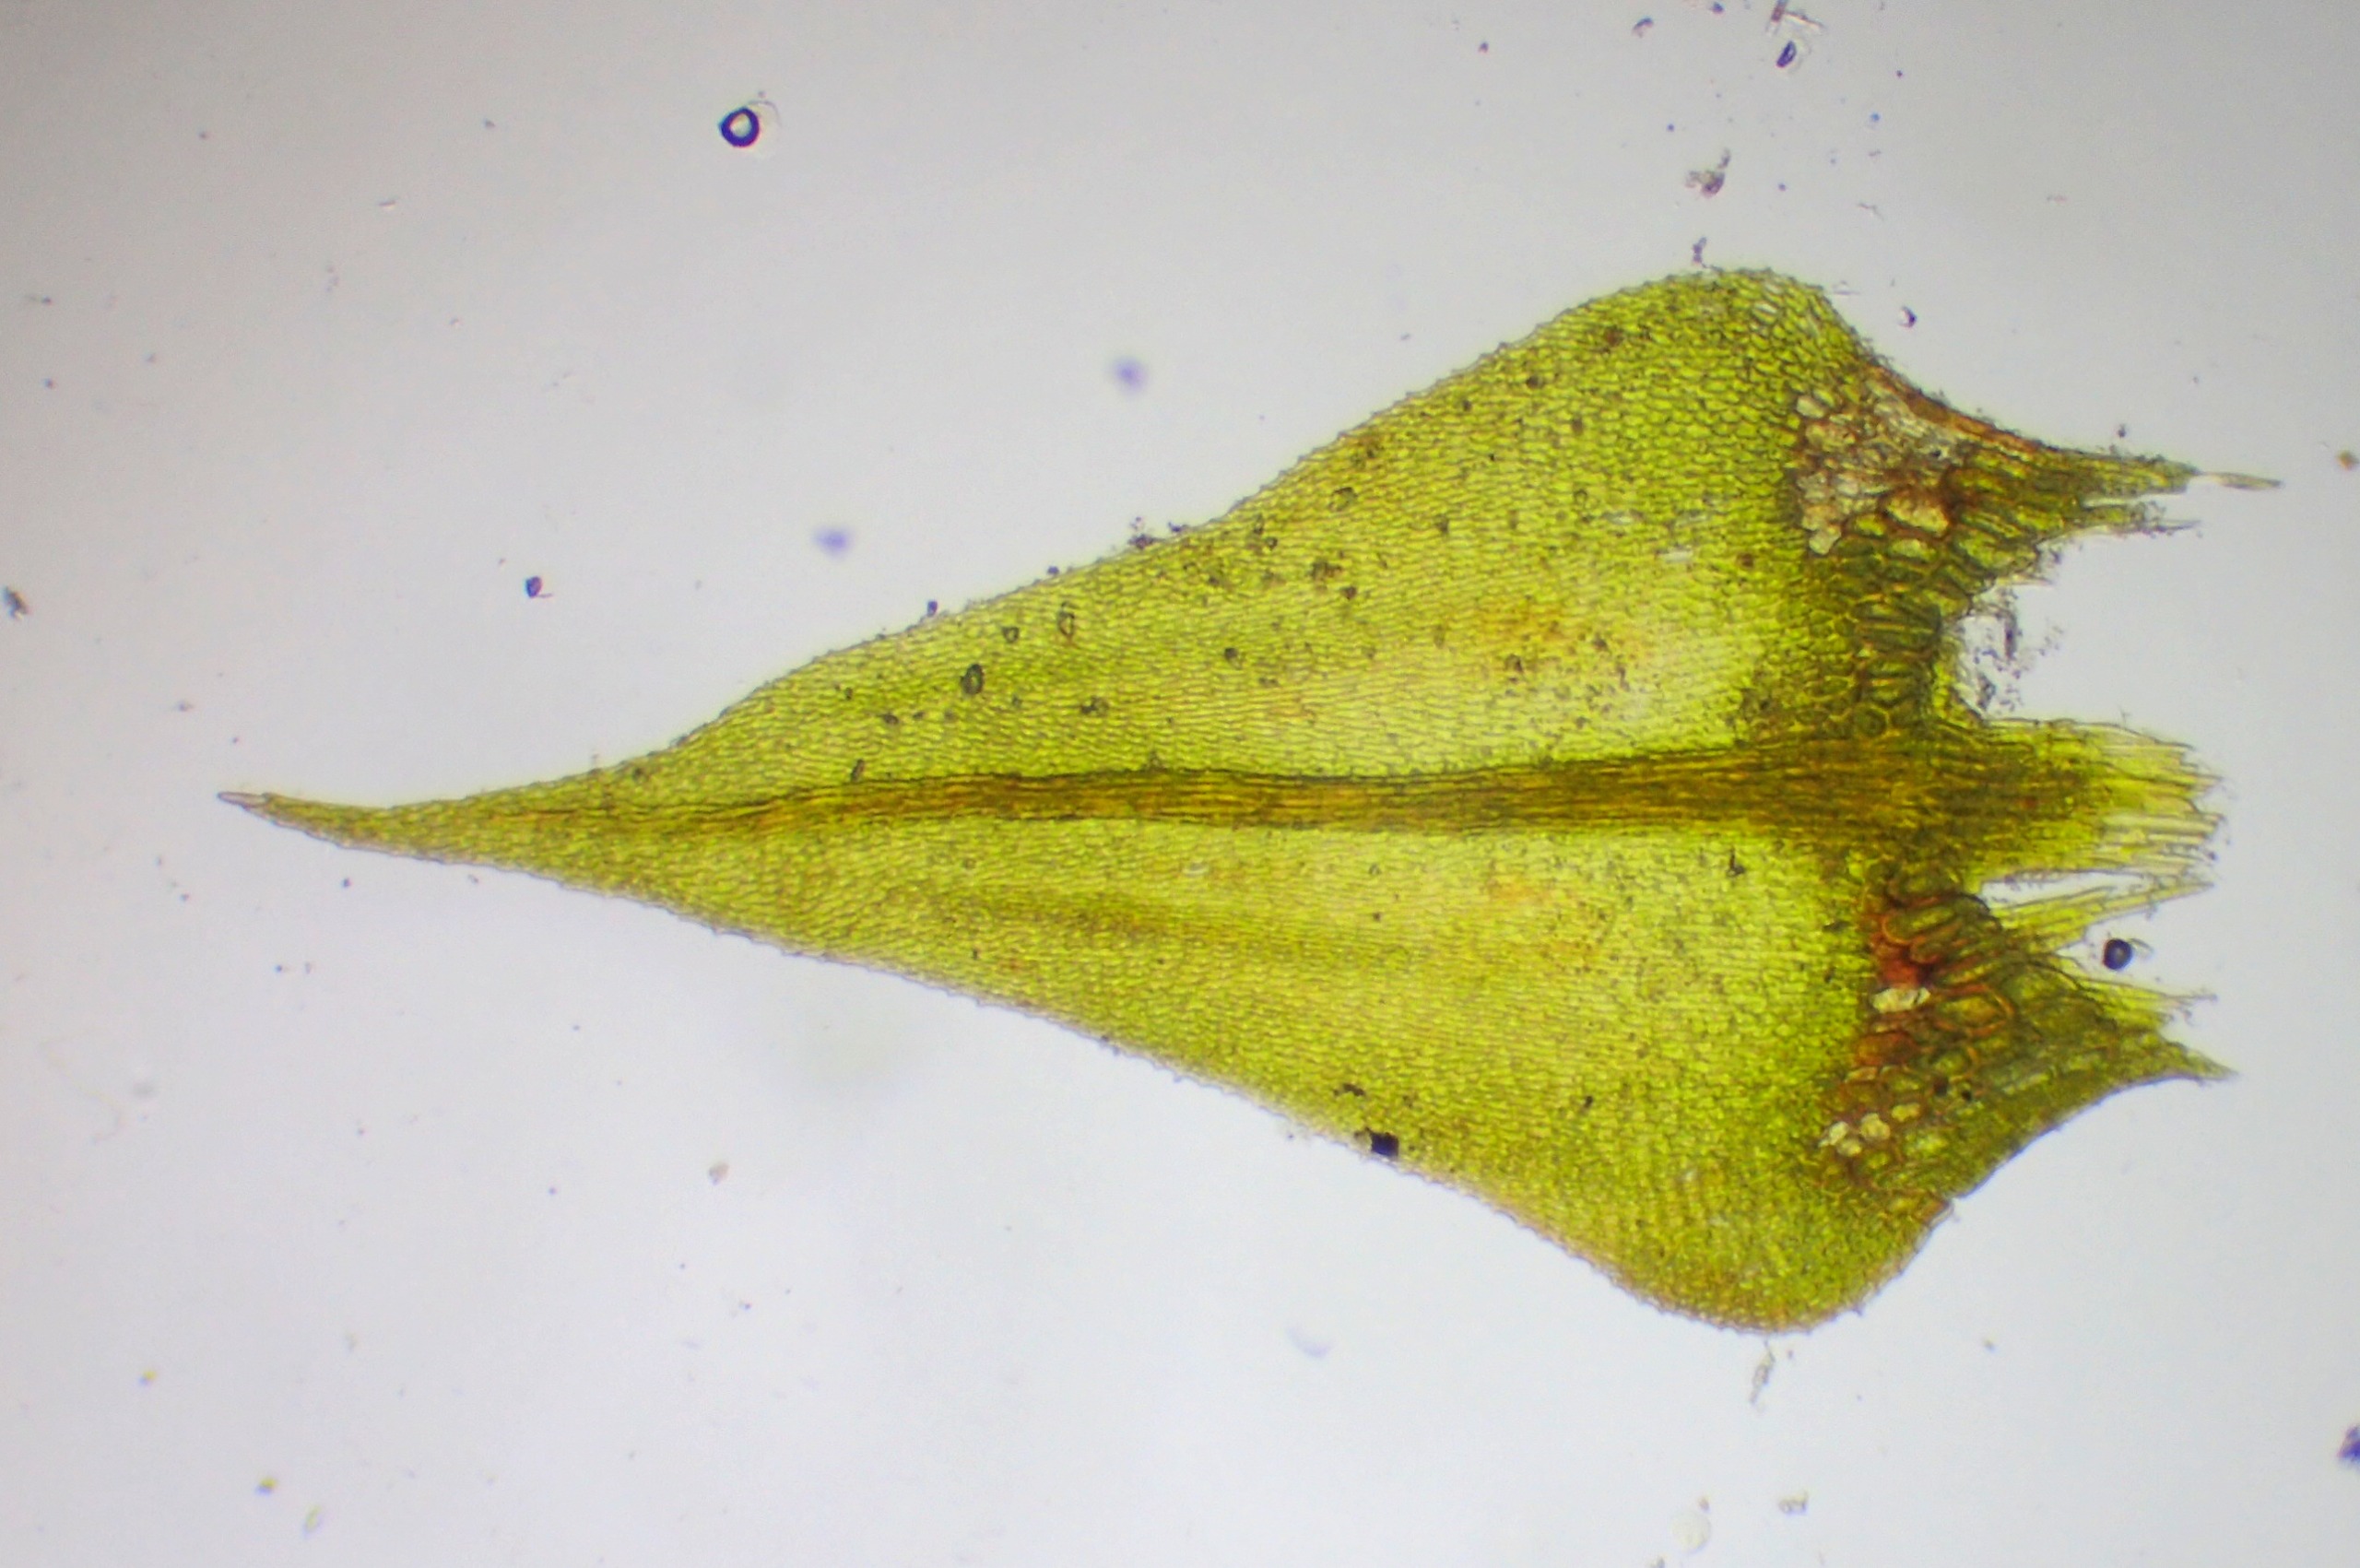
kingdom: Plantae
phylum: Bryophyta
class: Bryopsida
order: Hypnales
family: Amblystegiaceae
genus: Cratoneuron
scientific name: Cratoneuron filicinum
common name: Grøn eremitmos
